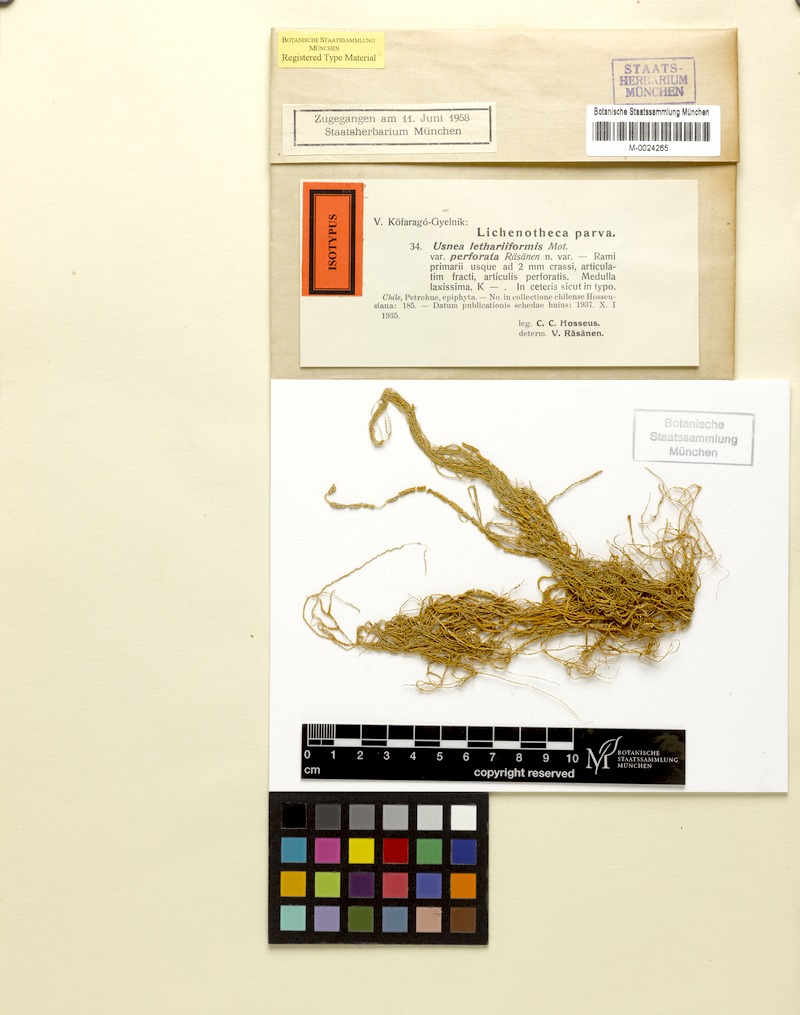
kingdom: Fungi
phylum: Ascomycota
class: Lecanoromycetes
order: Lecanorales
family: Parmeliaceae
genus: Usnea
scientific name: Usnea lethariiformis
